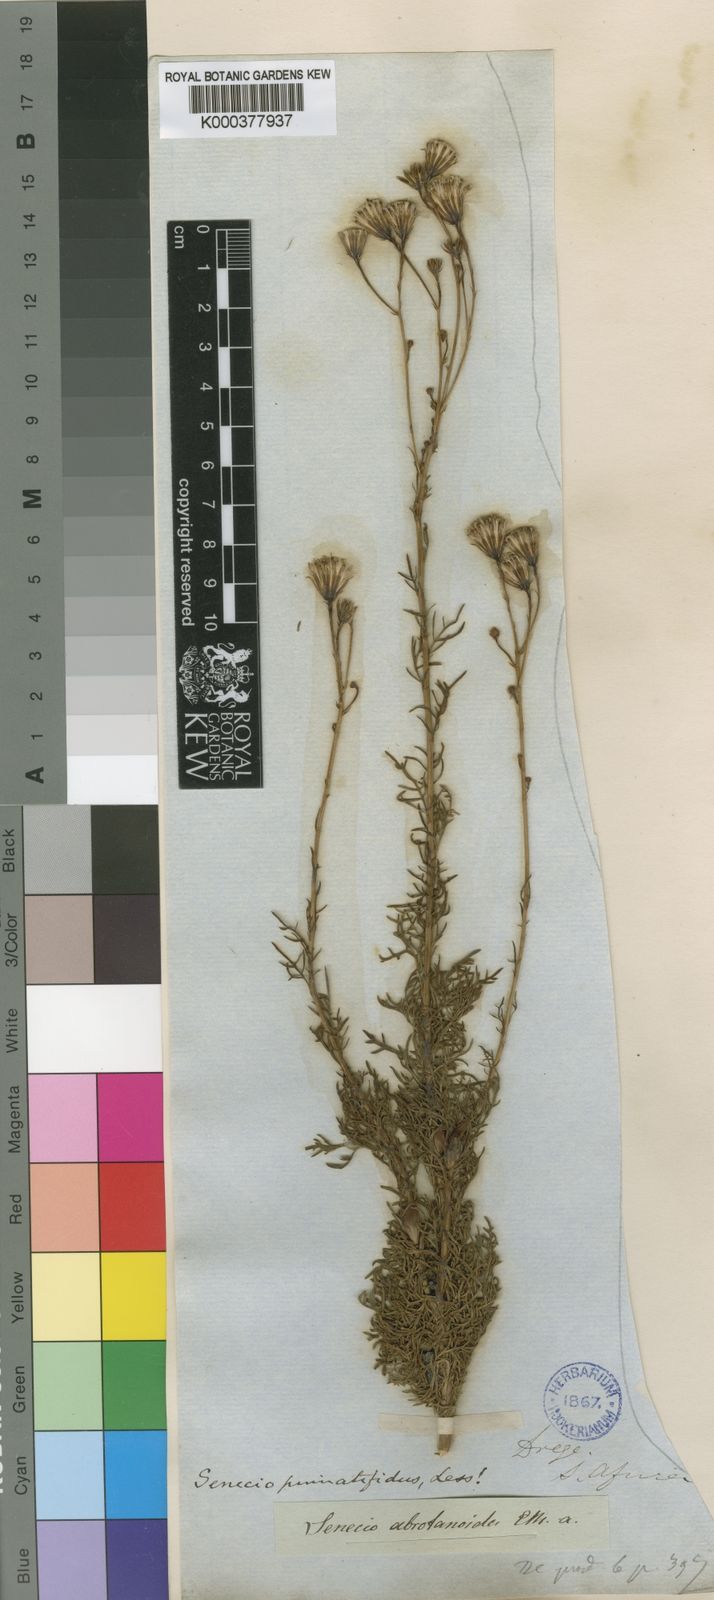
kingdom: Plantae
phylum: Tracheophyta
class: Magnoliopsida
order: Asterales
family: Asteraceae
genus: Senecio
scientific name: Senecio pinnatifidus
